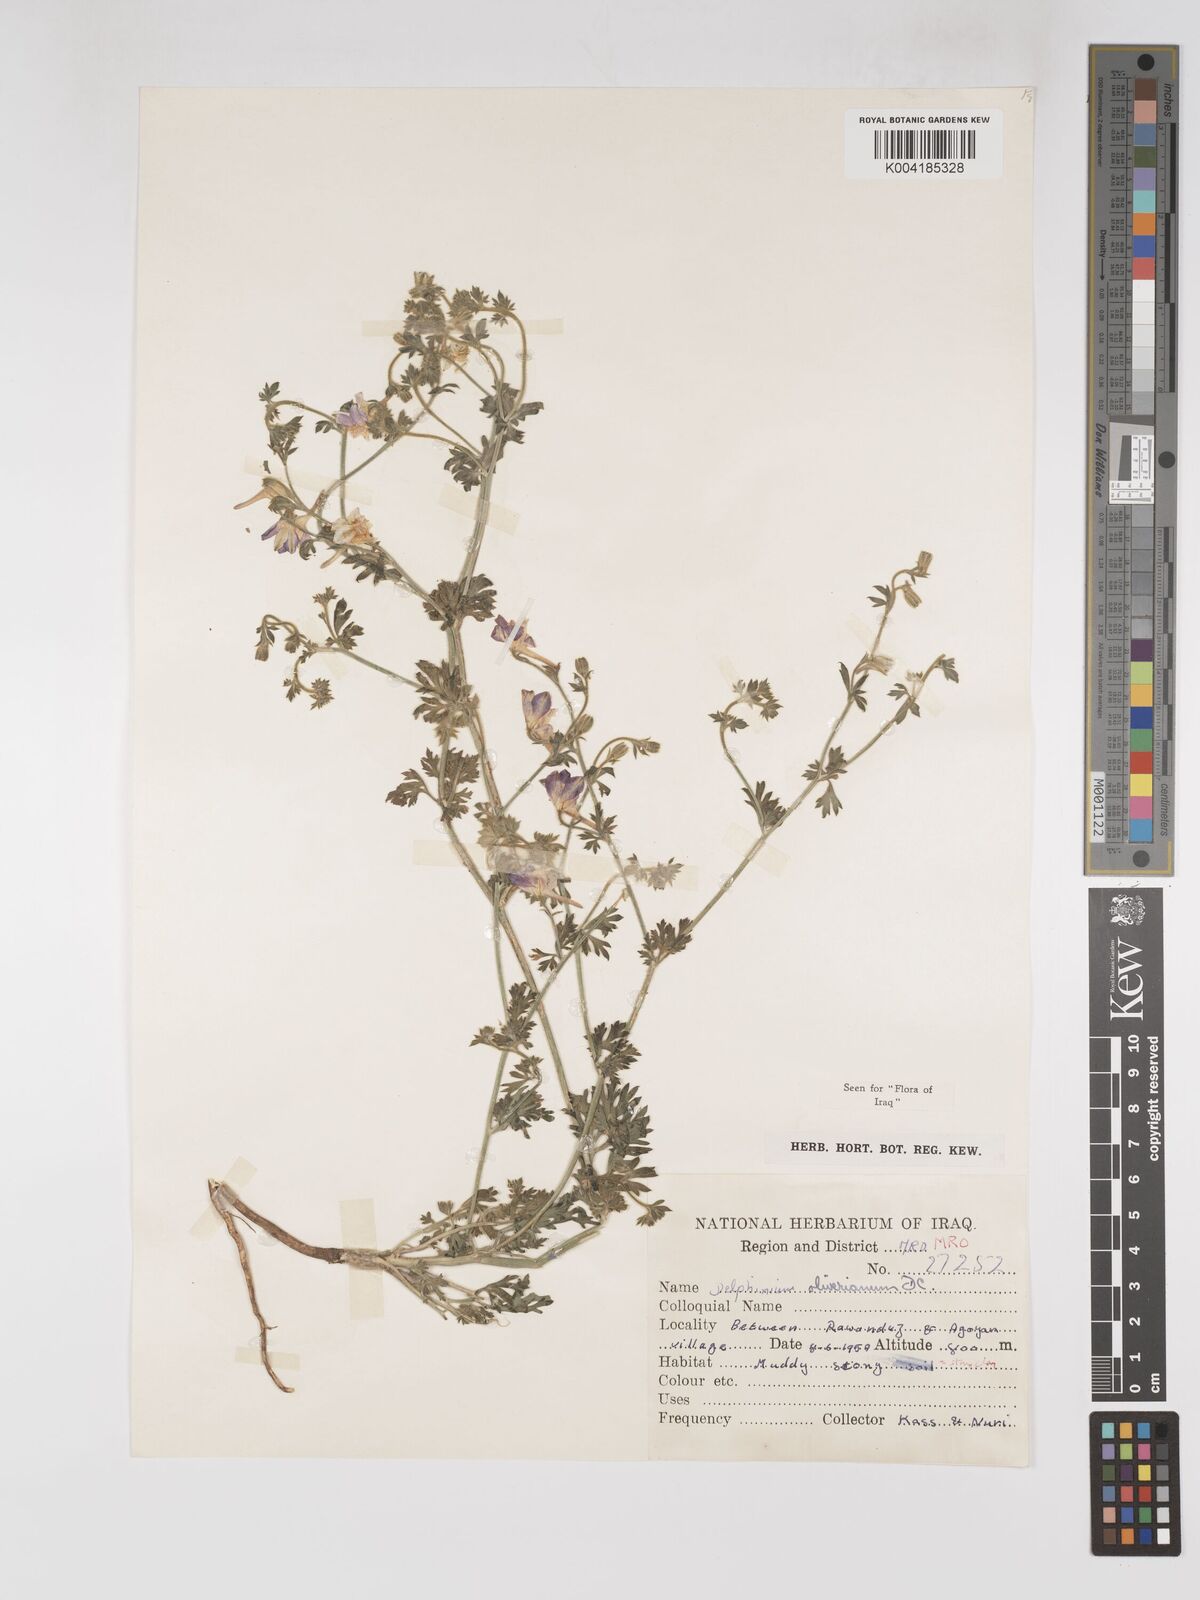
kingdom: Plantae
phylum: Tracheophyta
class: Magnoliopsida
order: Ranunculales
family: Ranunculaceae
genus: Delphinium
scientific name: Delphinium oliverianum
